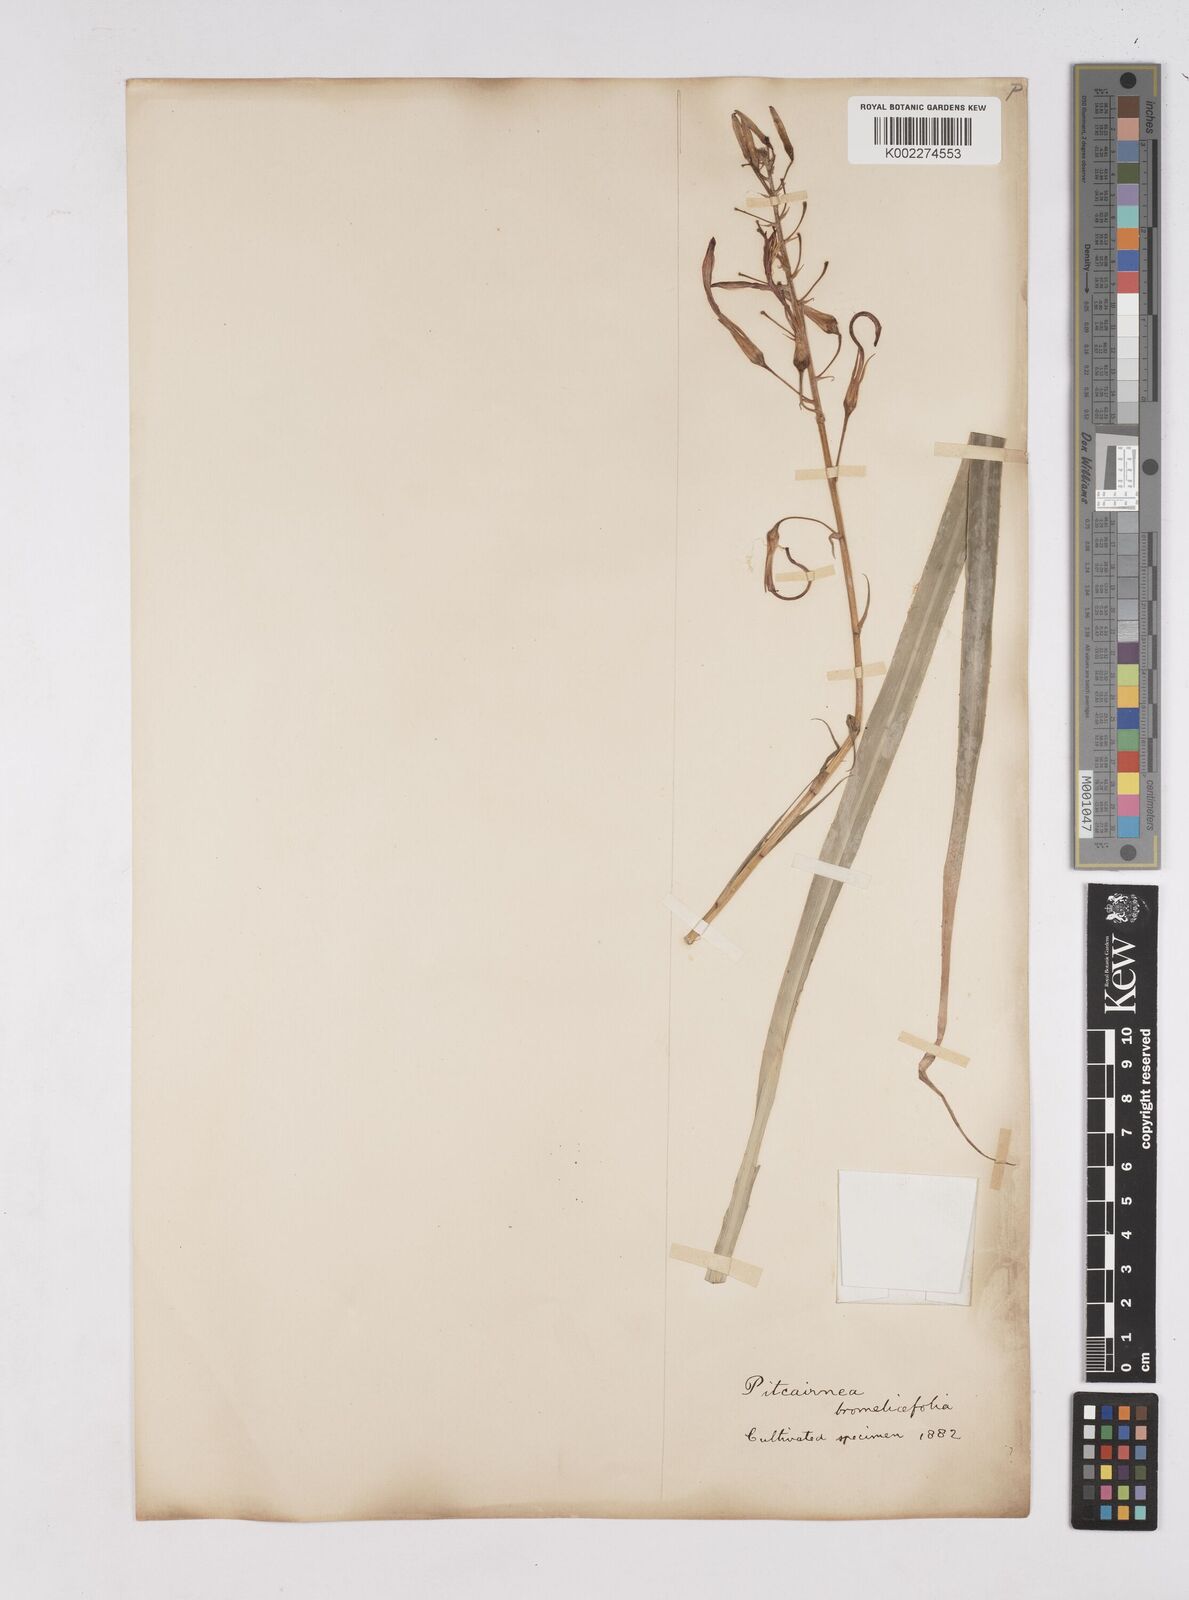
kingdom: Plantae
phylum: Tracheophyta
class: Liliopsida
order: Poales
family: Bromeliaceae
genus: Pitcairnia
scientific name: Pitcairnia bromeliifolia
